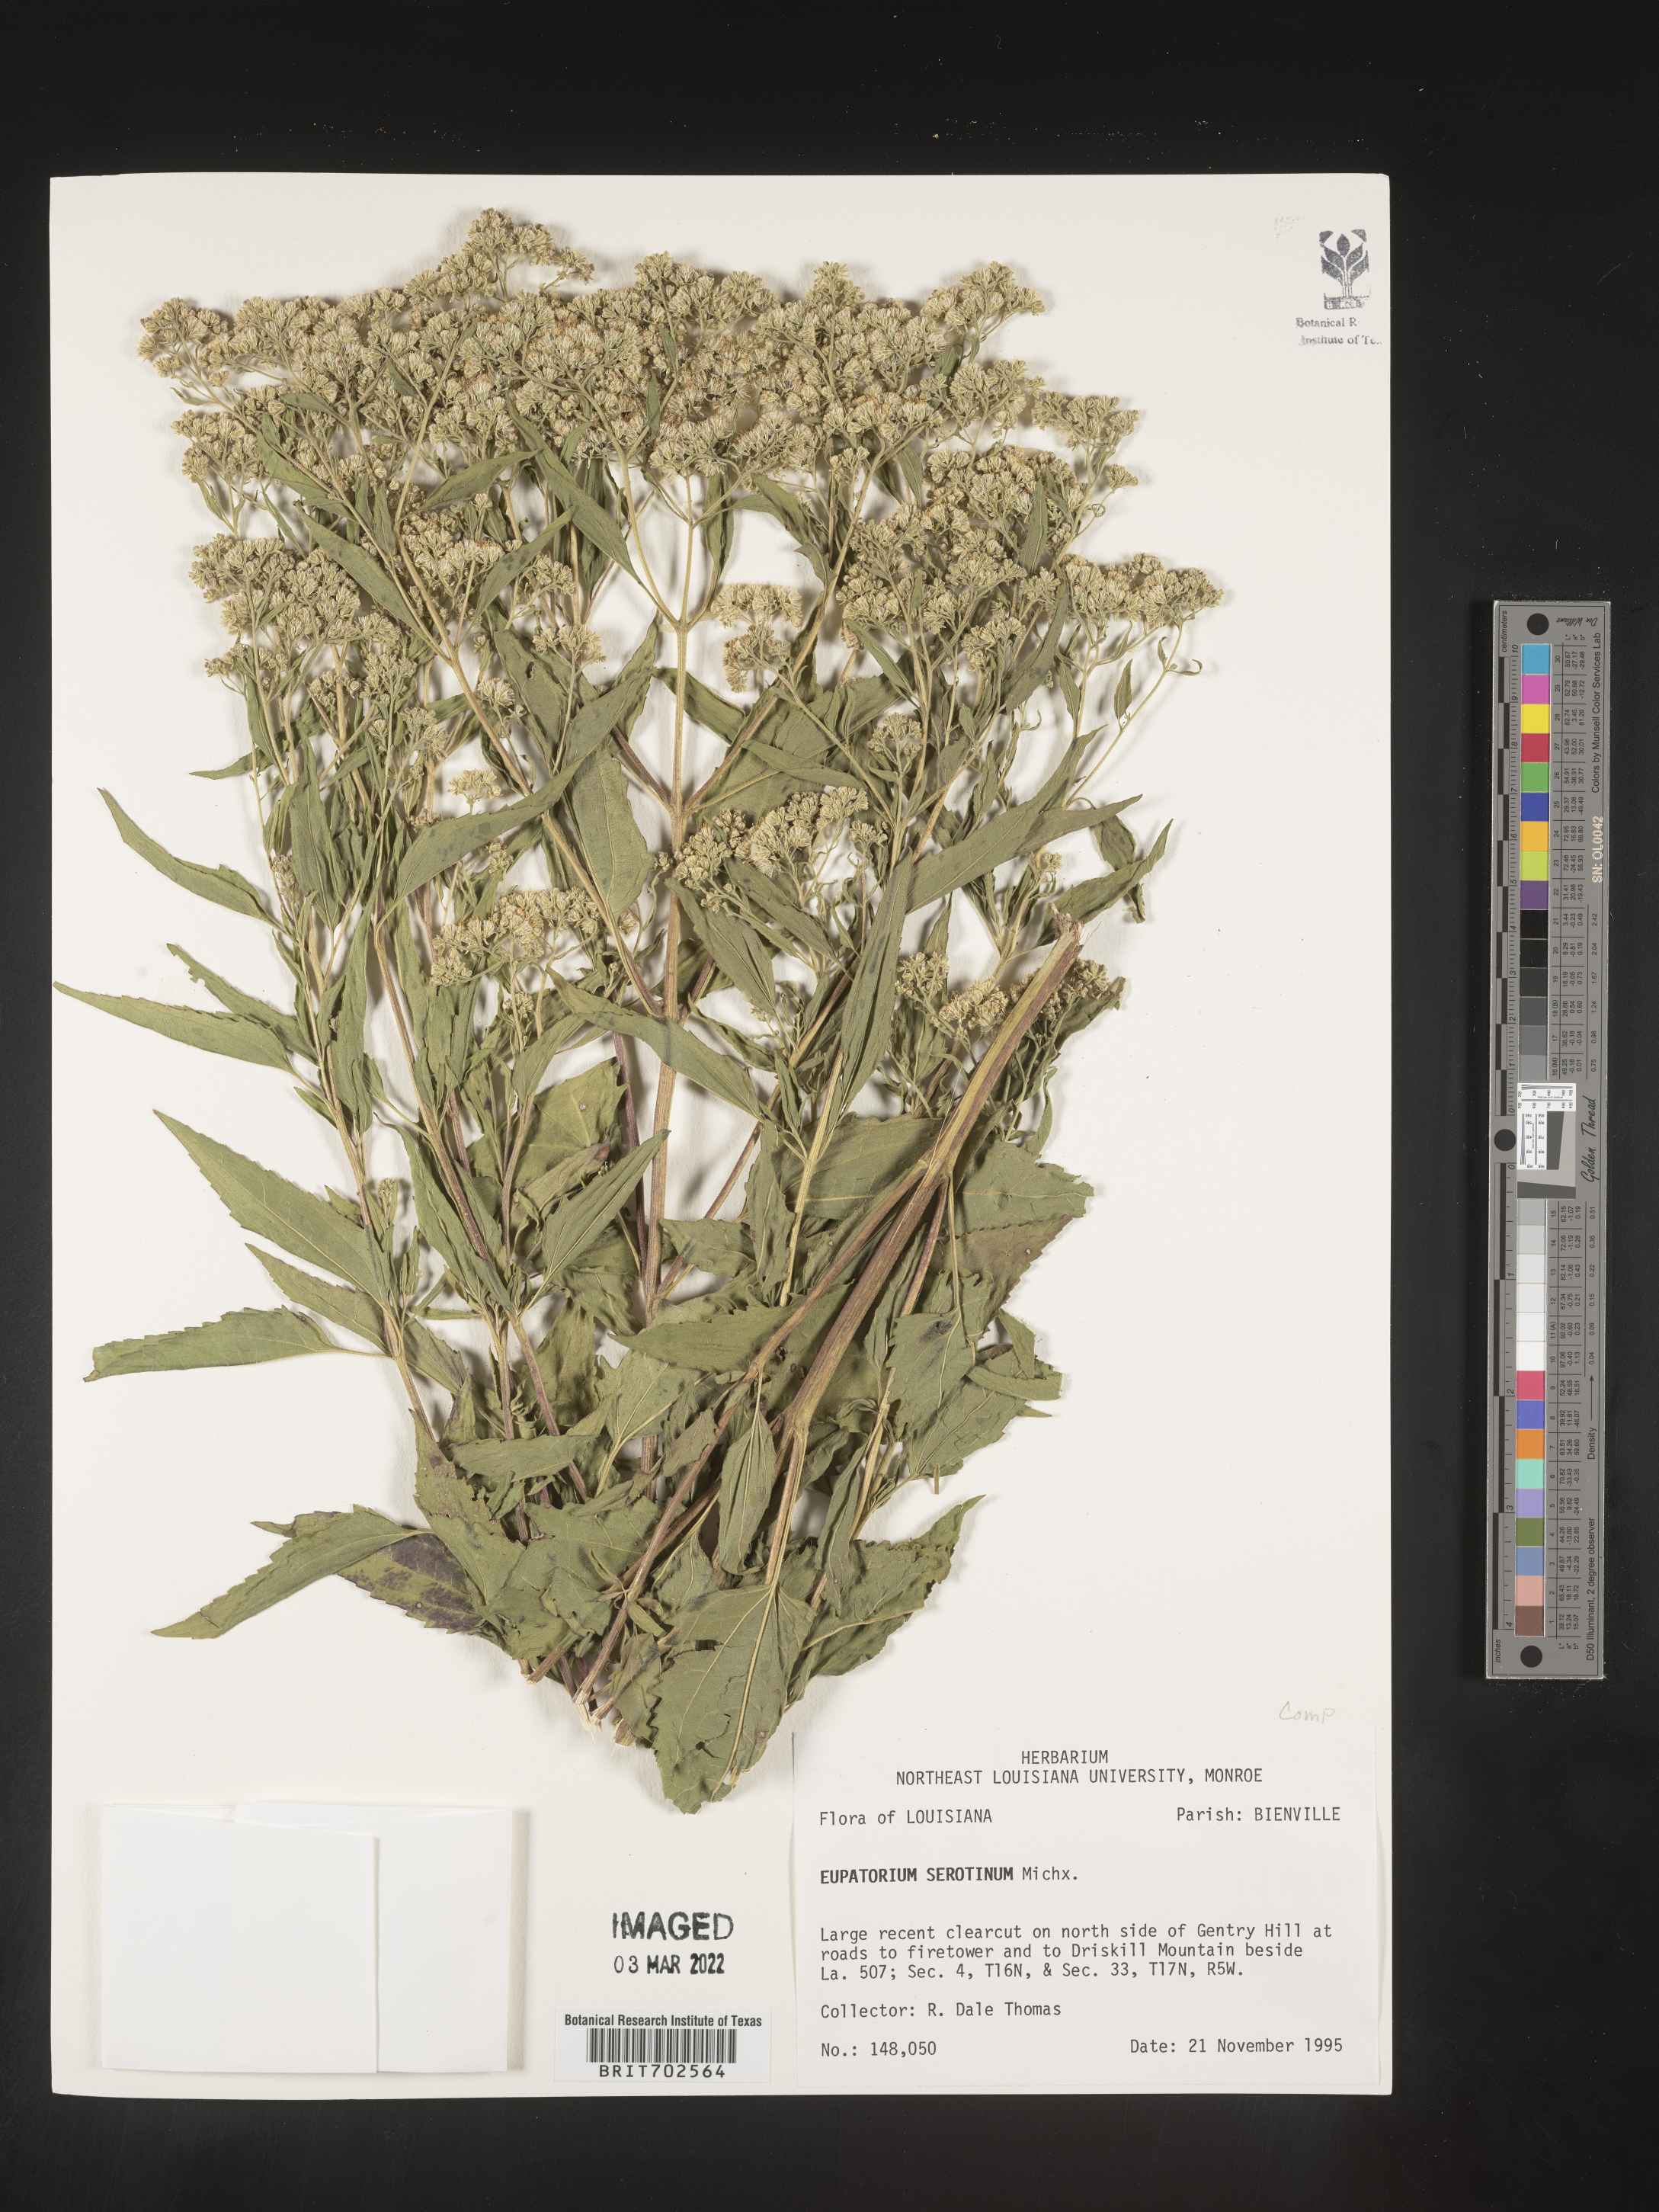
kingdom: Plantae
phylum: Tracheophyta
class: Magnoliopsida
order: Asterales
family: Asteraceae
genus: Eupatorium
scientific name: Eupatorium serotinum
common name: Late boneset
